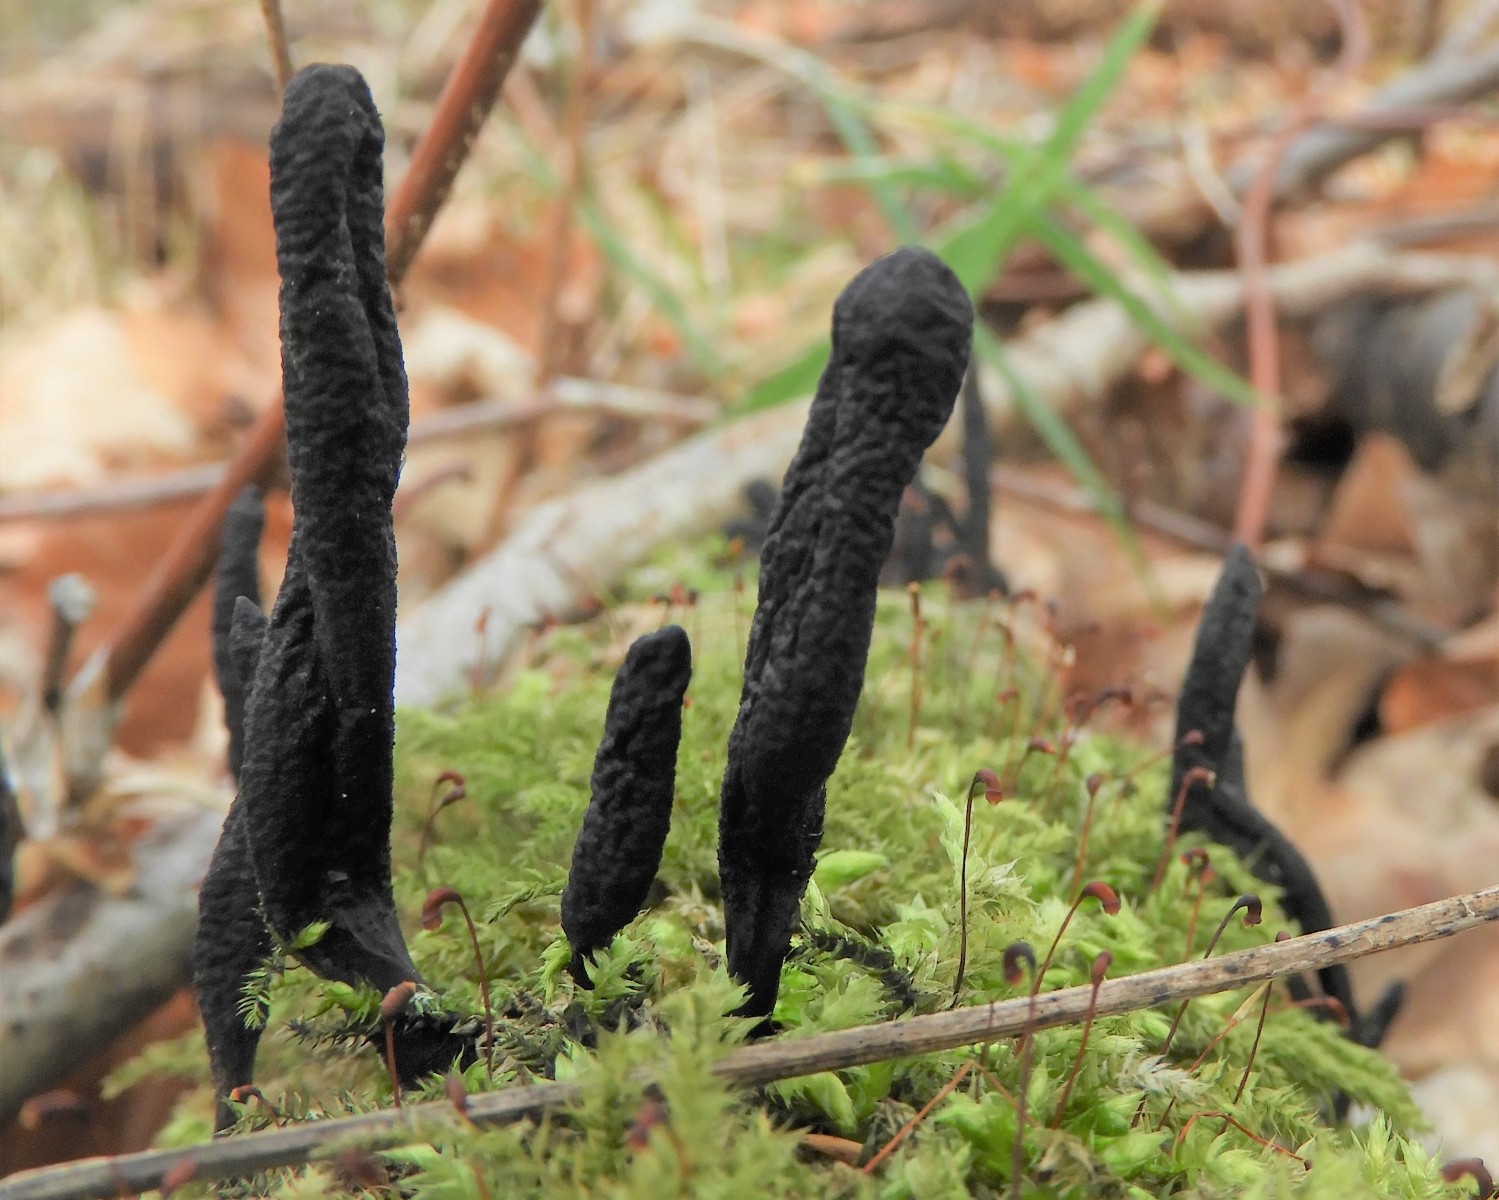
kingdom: Fungi
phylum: Ascomycota
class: Sordariomycetes
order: Xylariales
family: Xylariaceae
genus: Xylaria
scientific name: Xylaria longipes
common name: slank stødsvamp
